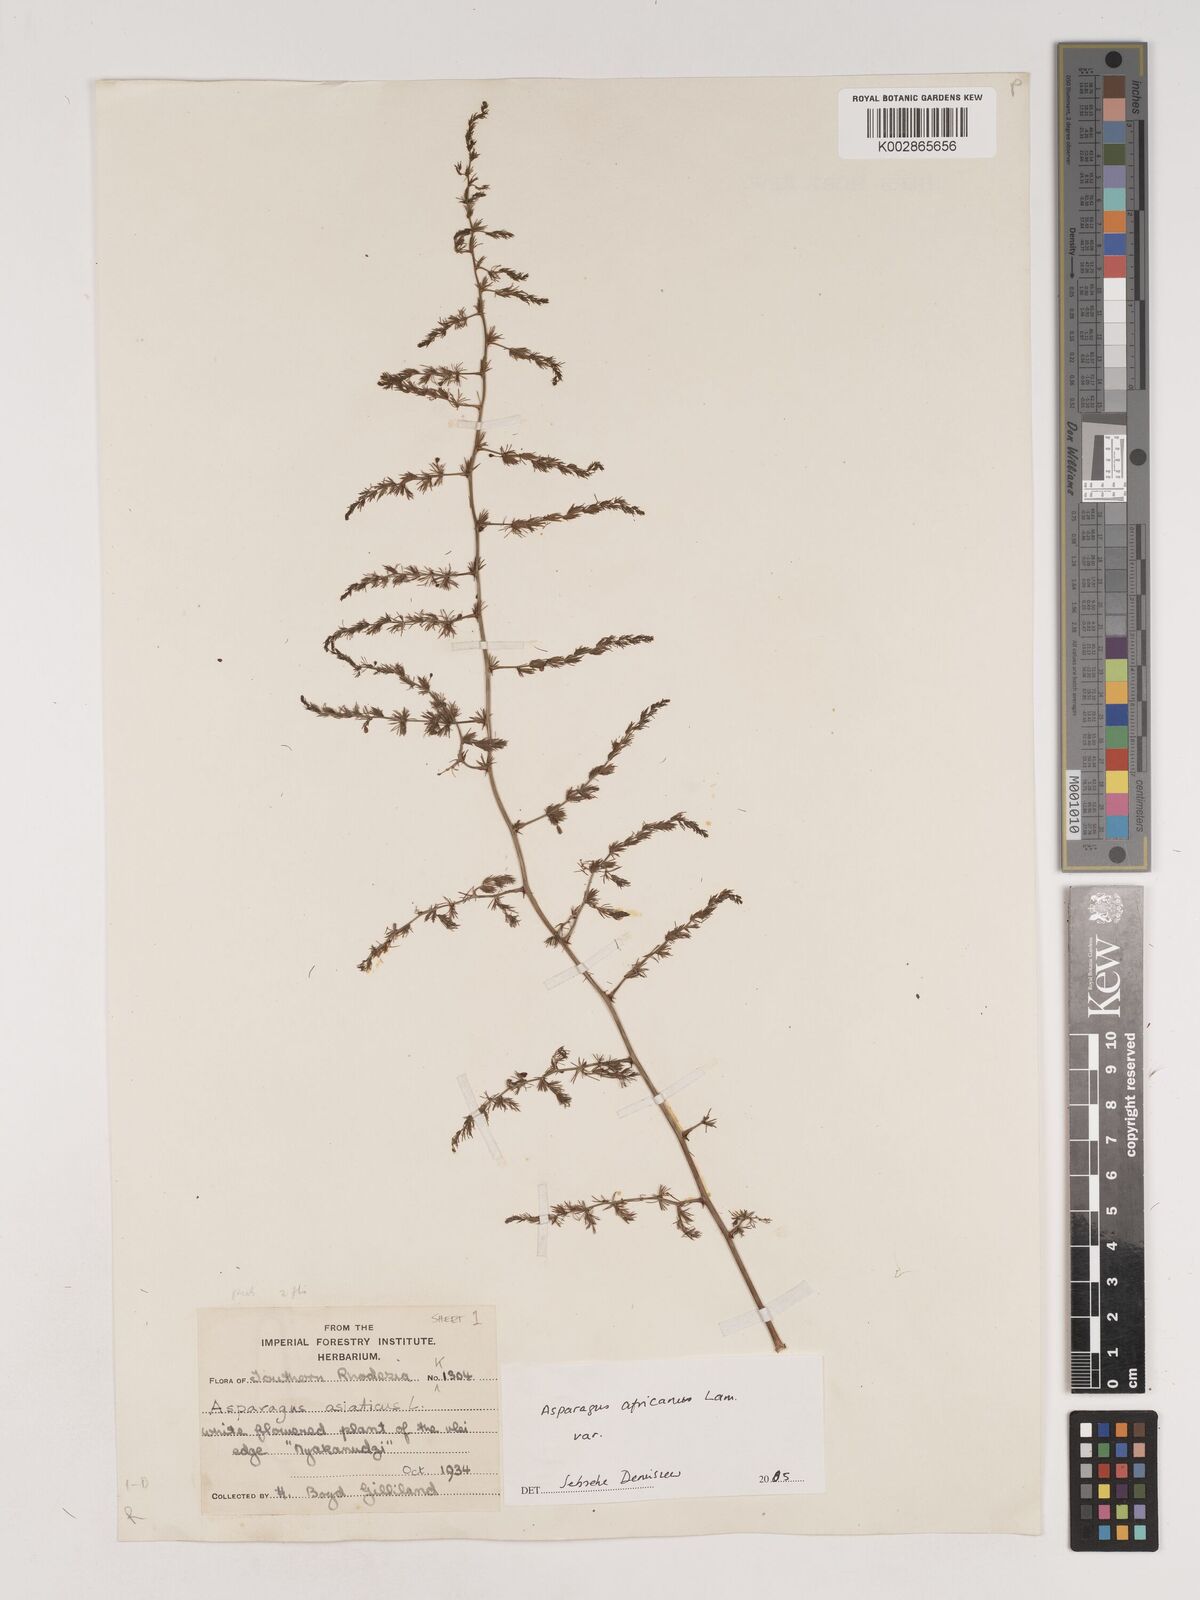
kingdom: Plantae
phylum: Tracheophyta
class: Liliopsida
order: Asparagales
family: Asparagaceae
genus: Asparagus
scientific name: Asparagus africanus
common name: Asparagus-fern
